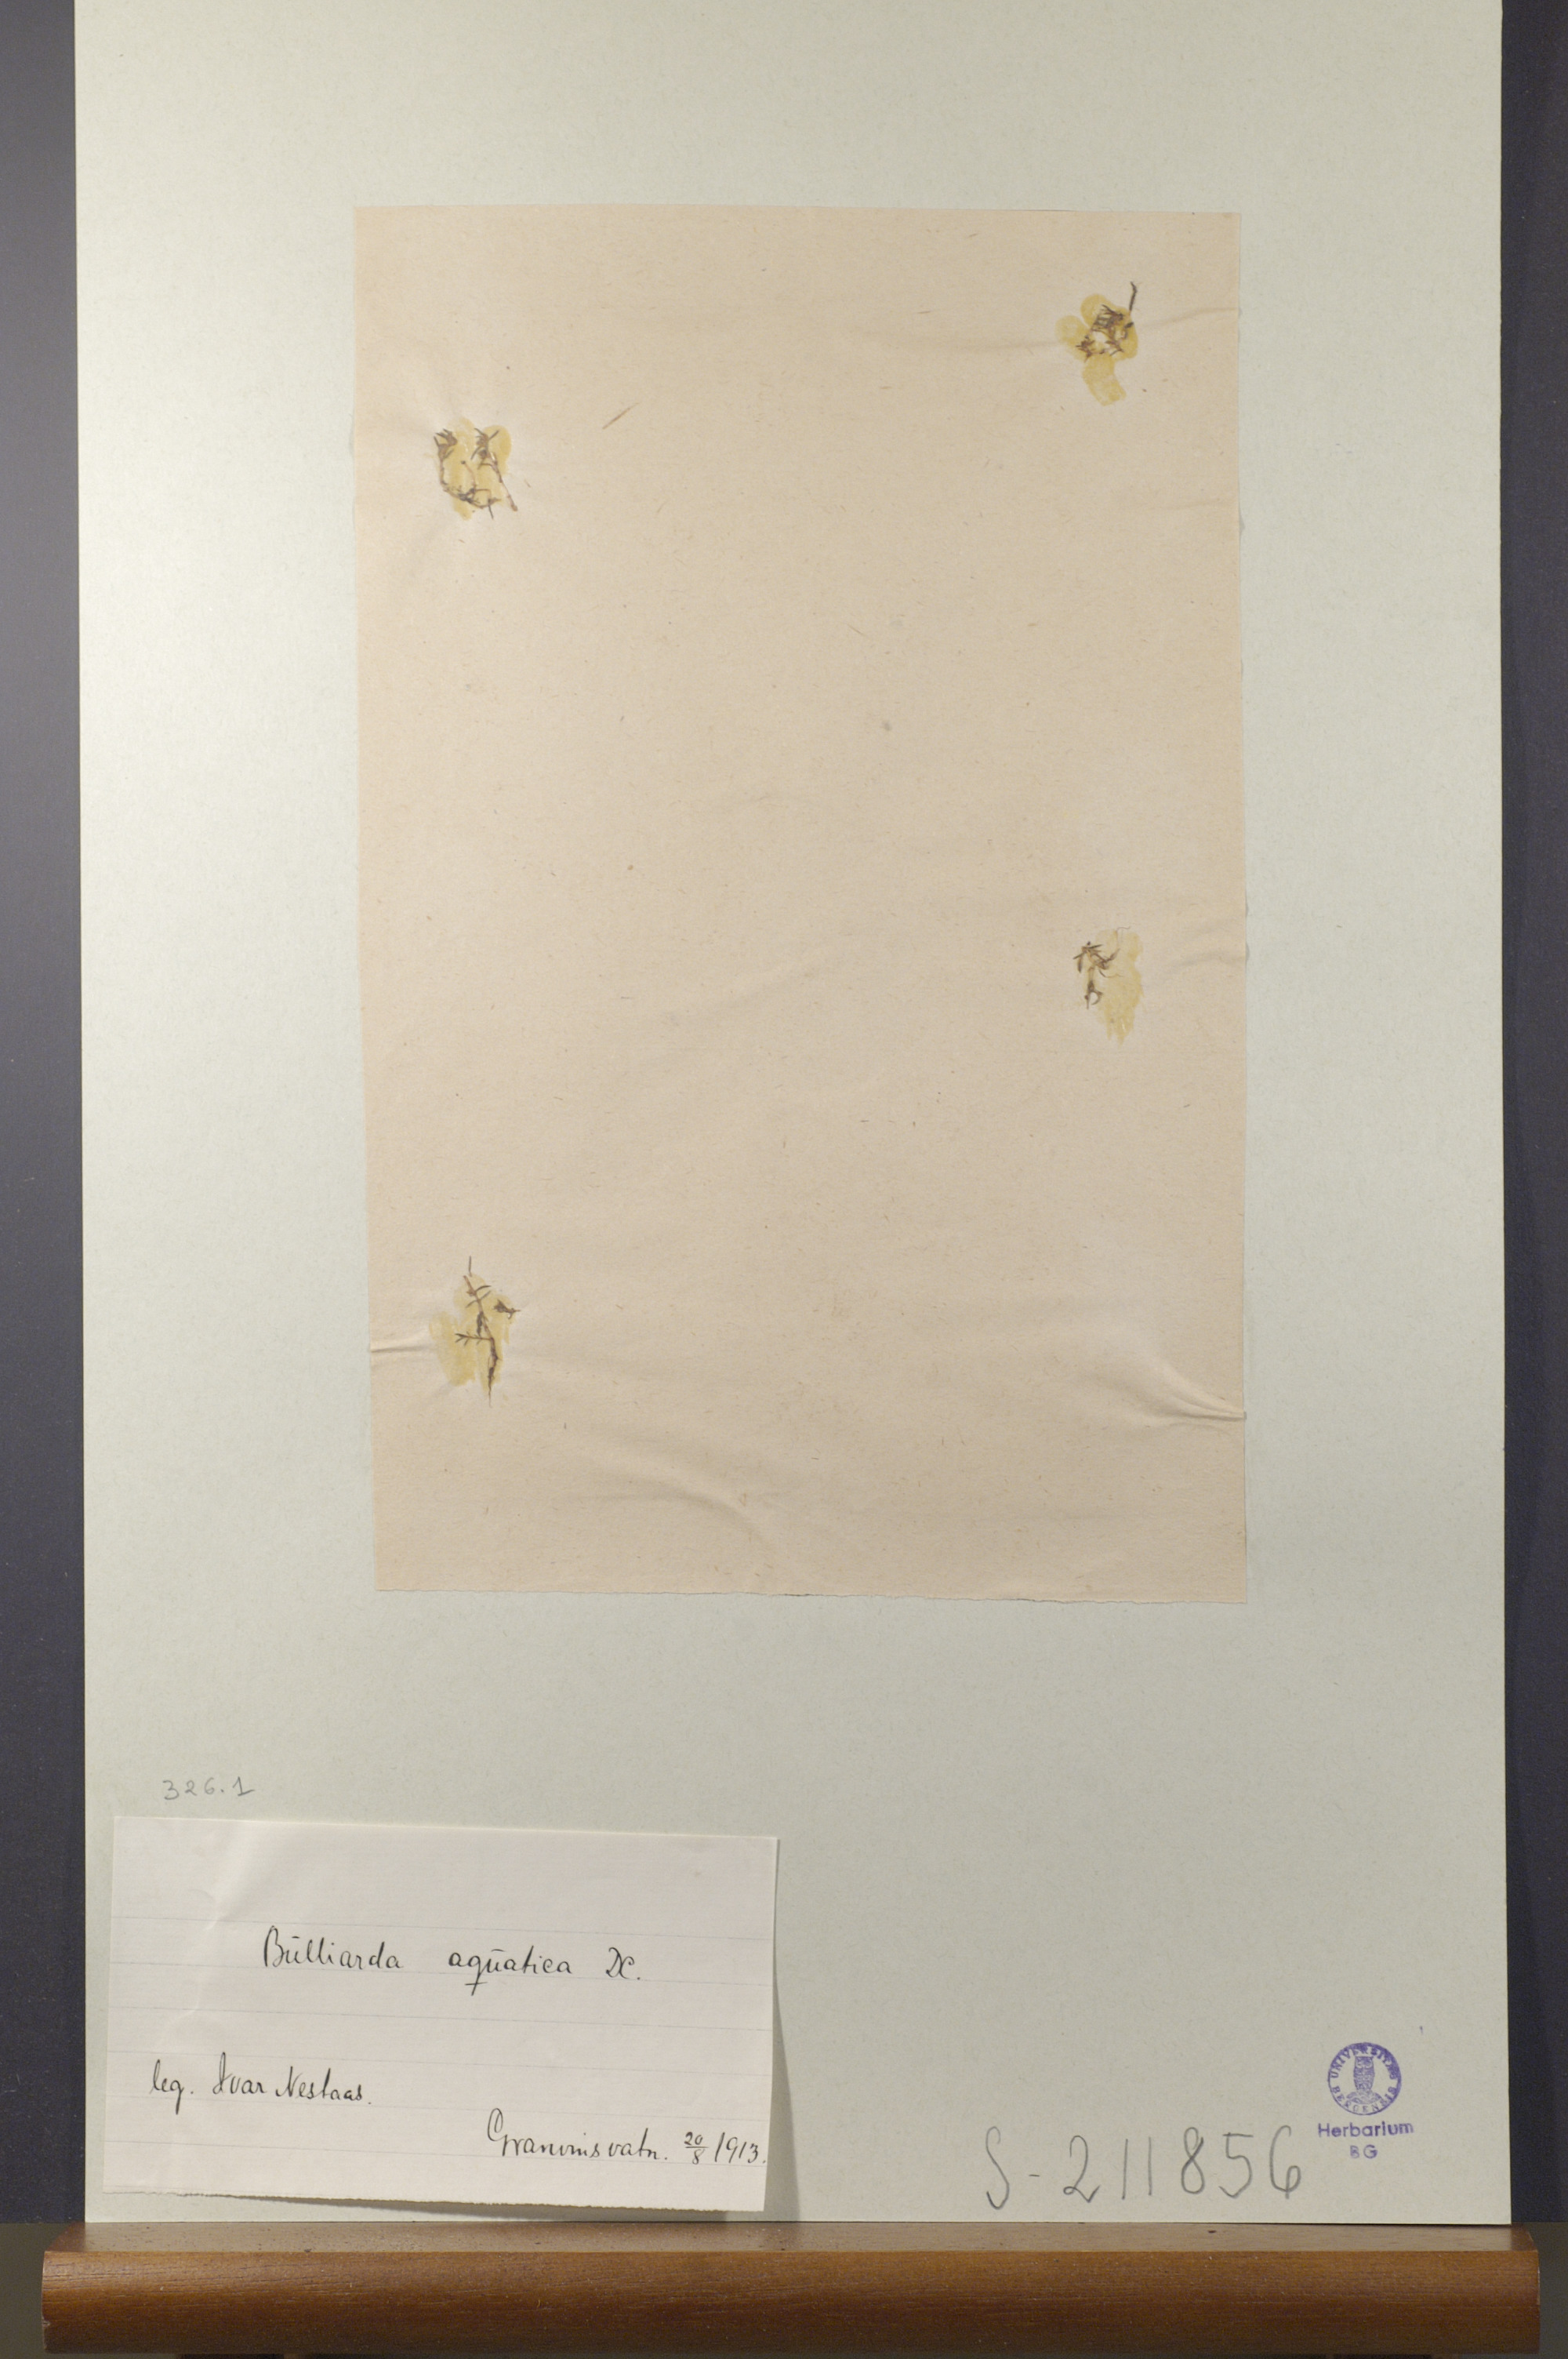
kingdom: Plantae
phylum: Tracheophyta
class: Magnoliopsida
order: Saxifragales
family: Crassulaceae
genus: Crassula
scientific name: Crassula aquatica
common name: Pigmyweed
